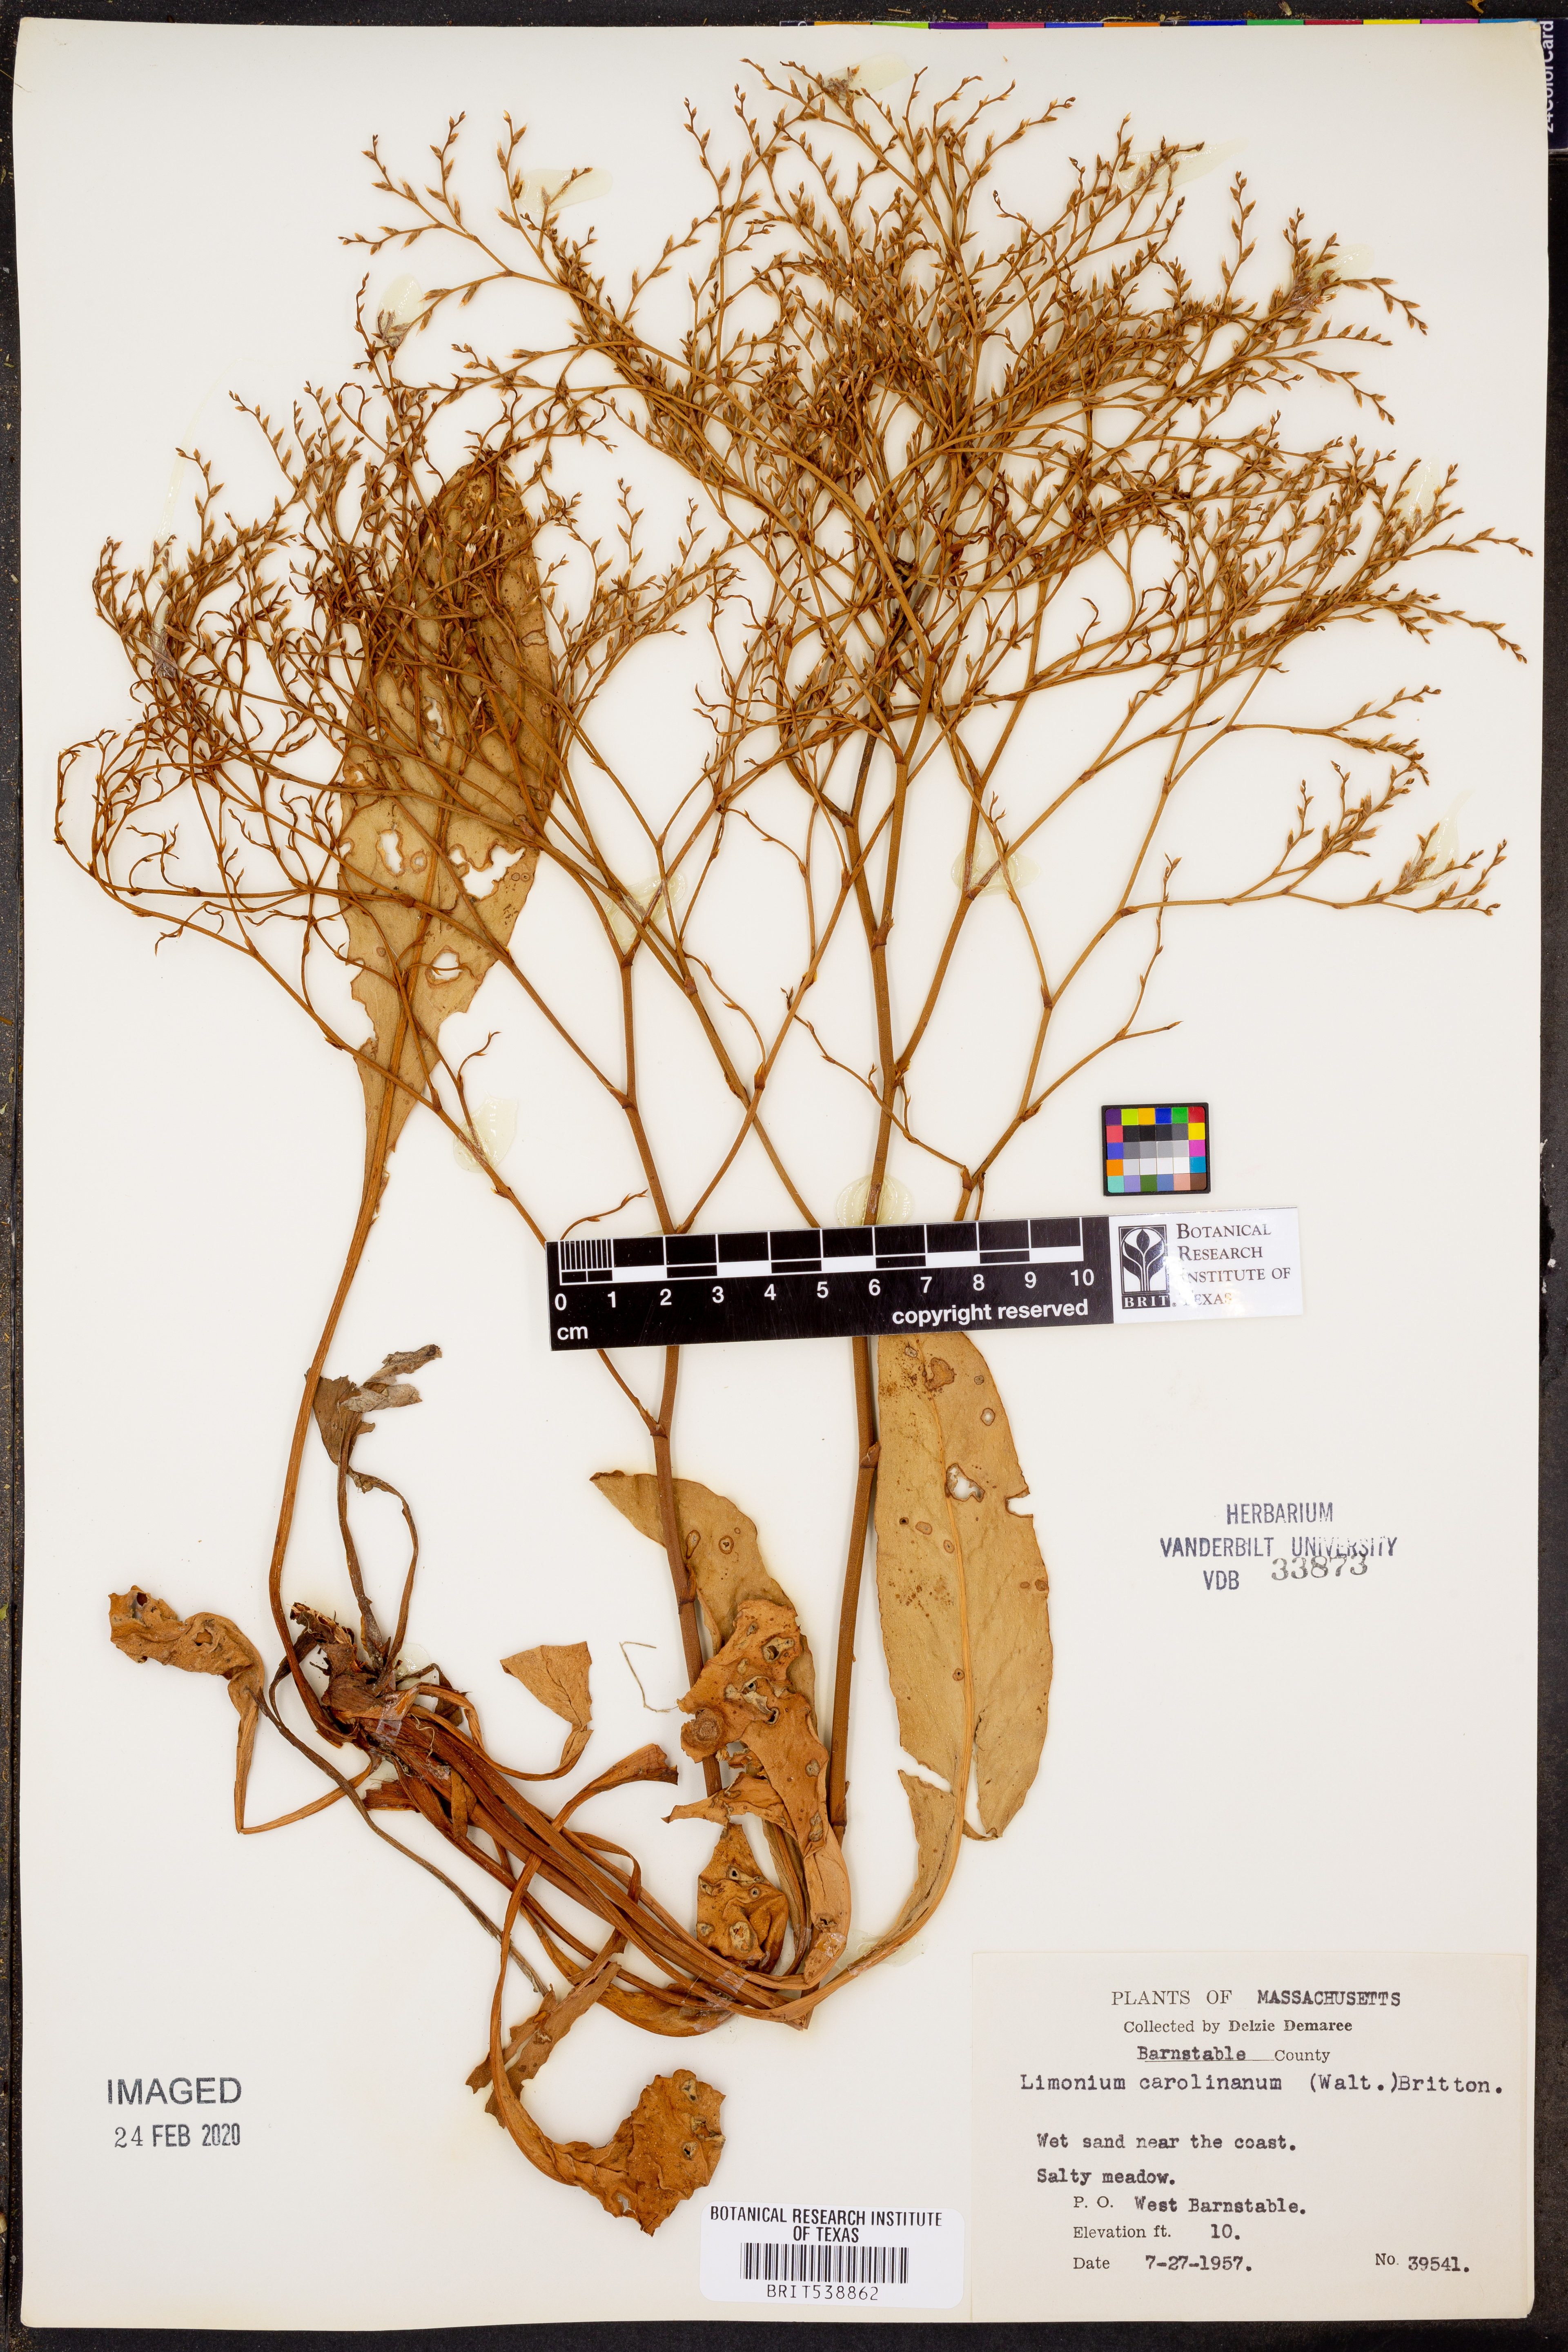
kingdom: Plantae
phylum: Tracheophyta
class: Magnoliopsida
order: Caryophyllales
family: Plumbaginaceae
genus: Limonium
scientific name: Limonium carolinianum
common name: Carolina sea lavender
